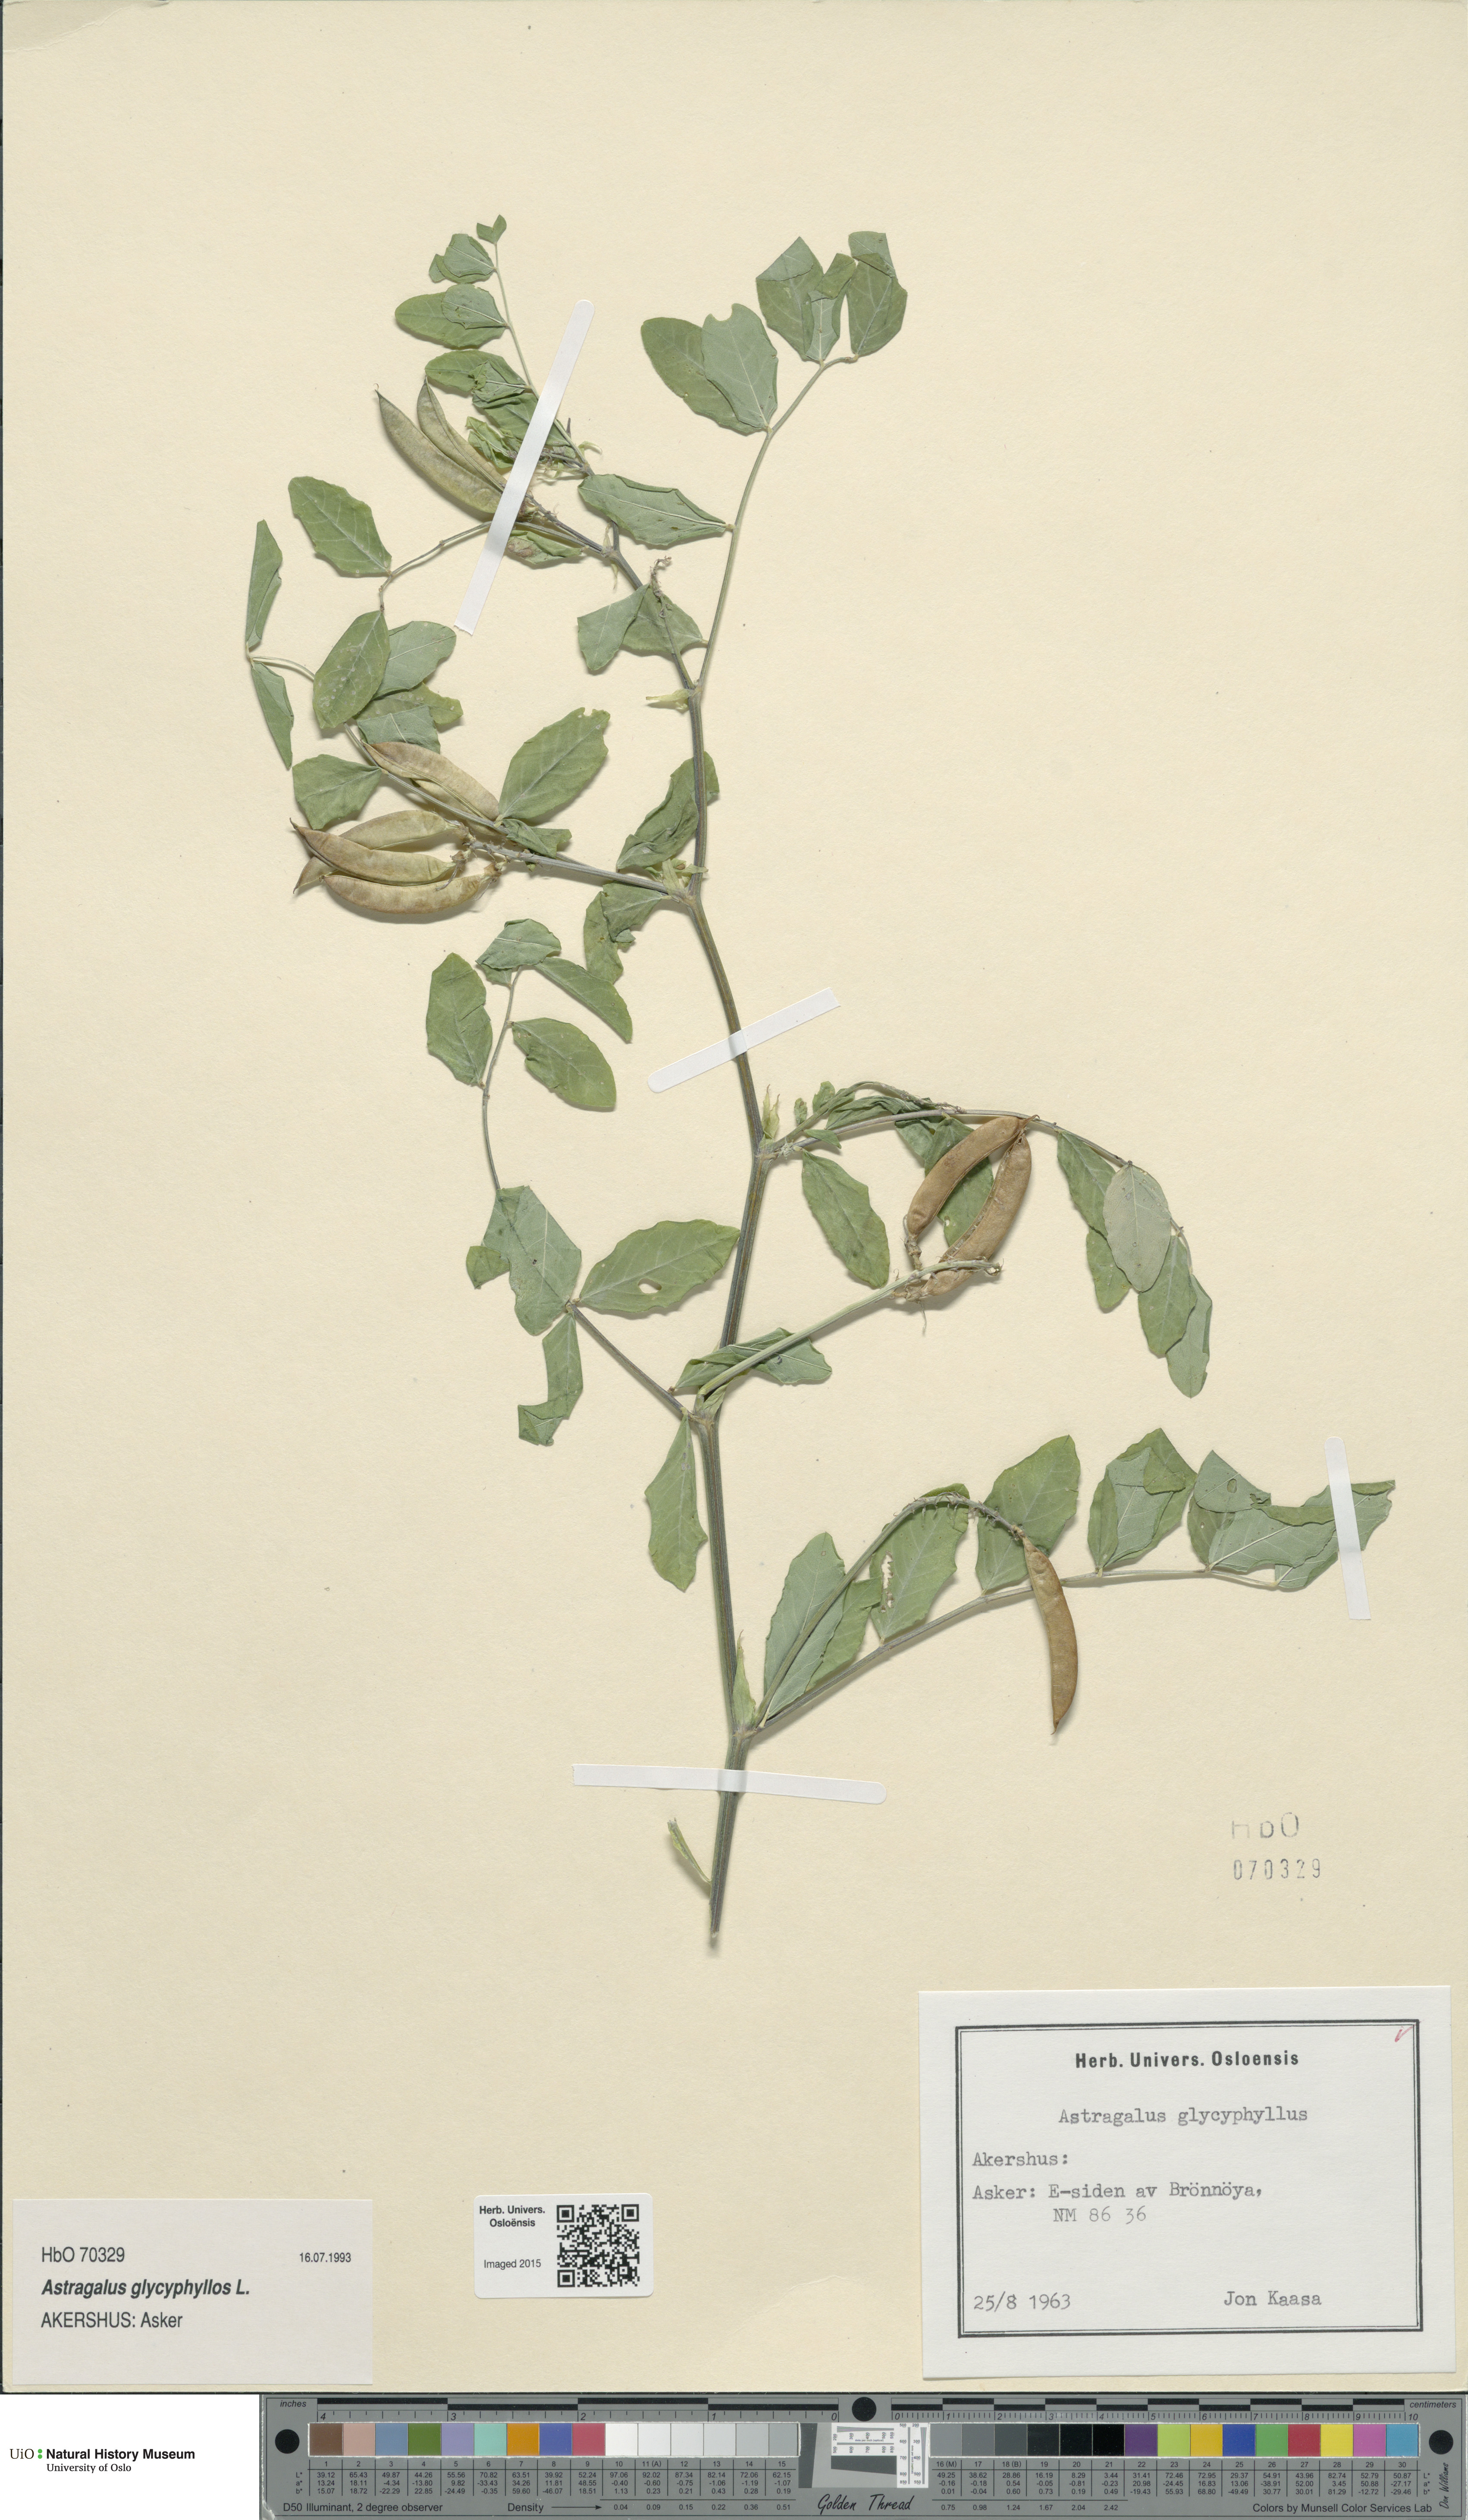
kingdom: Plantae
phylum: Tracheophyta
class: Magnoliopsida
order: Fabales
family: Fabaceae
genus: Astragalus
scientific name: Astragalus glycyphyllos
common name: Wild liquorice
